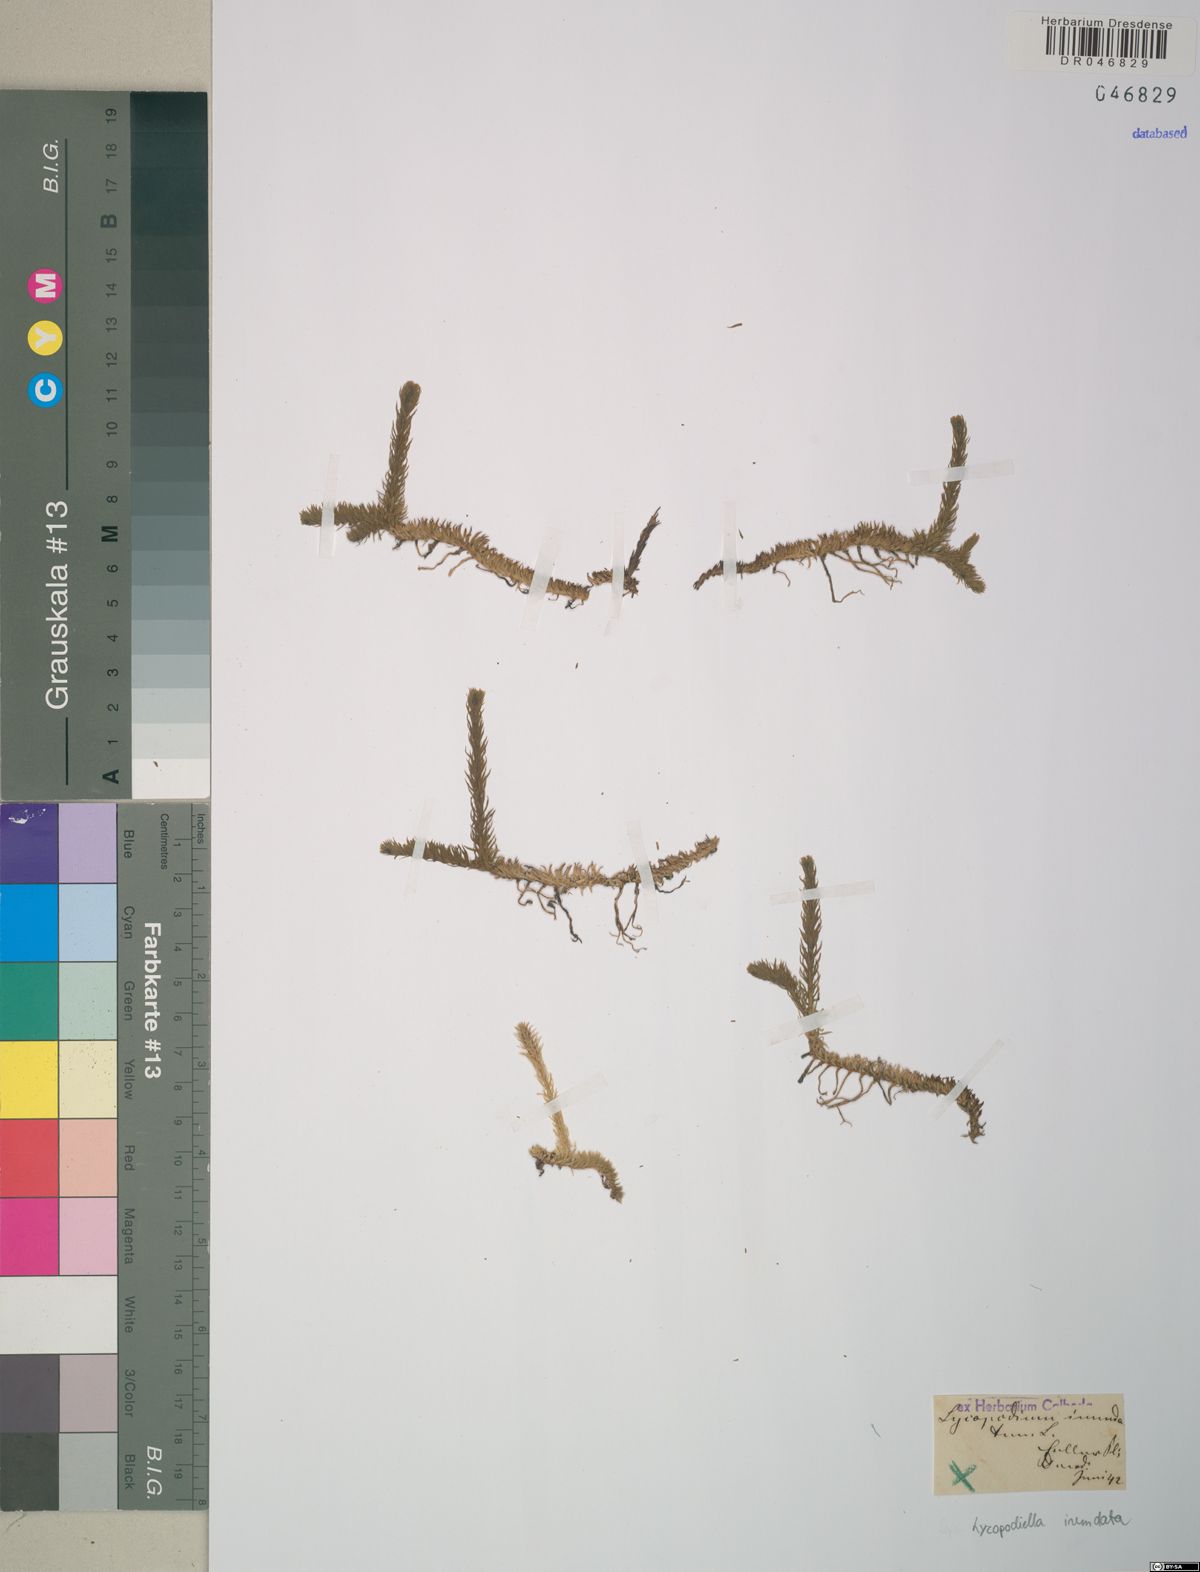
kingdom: Plantae
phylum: Tracheophyta
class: Lycopodiopsida
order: Lycopodiales
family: Lycopodiaceae
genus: Lycopodiella
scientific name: Lycopodiella inundata
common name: Marsh clubmoss
